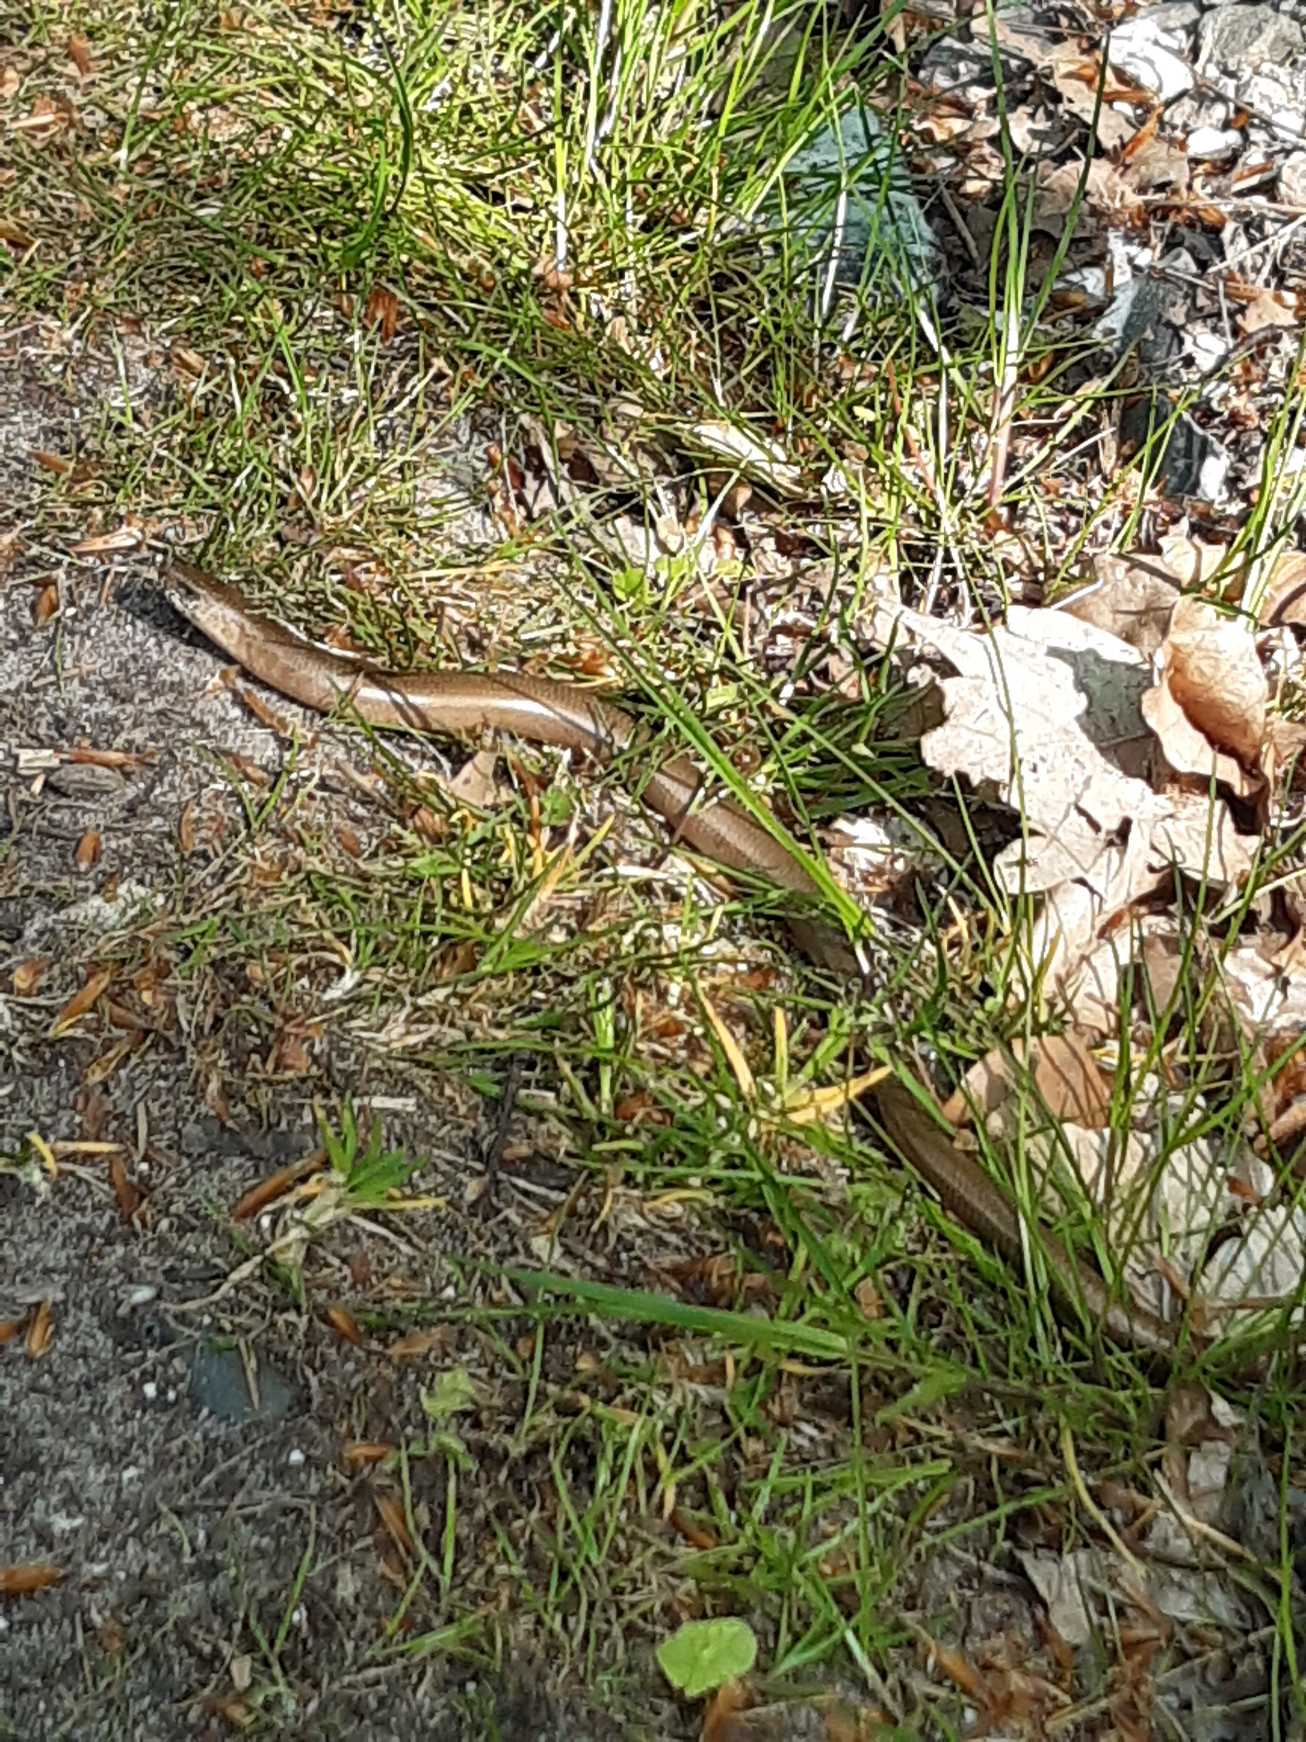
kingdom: Animalia
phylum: Chordata
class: Squamata
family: Anguidae
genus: Anguis
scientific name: Anguis fragilis
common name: Stålorm
